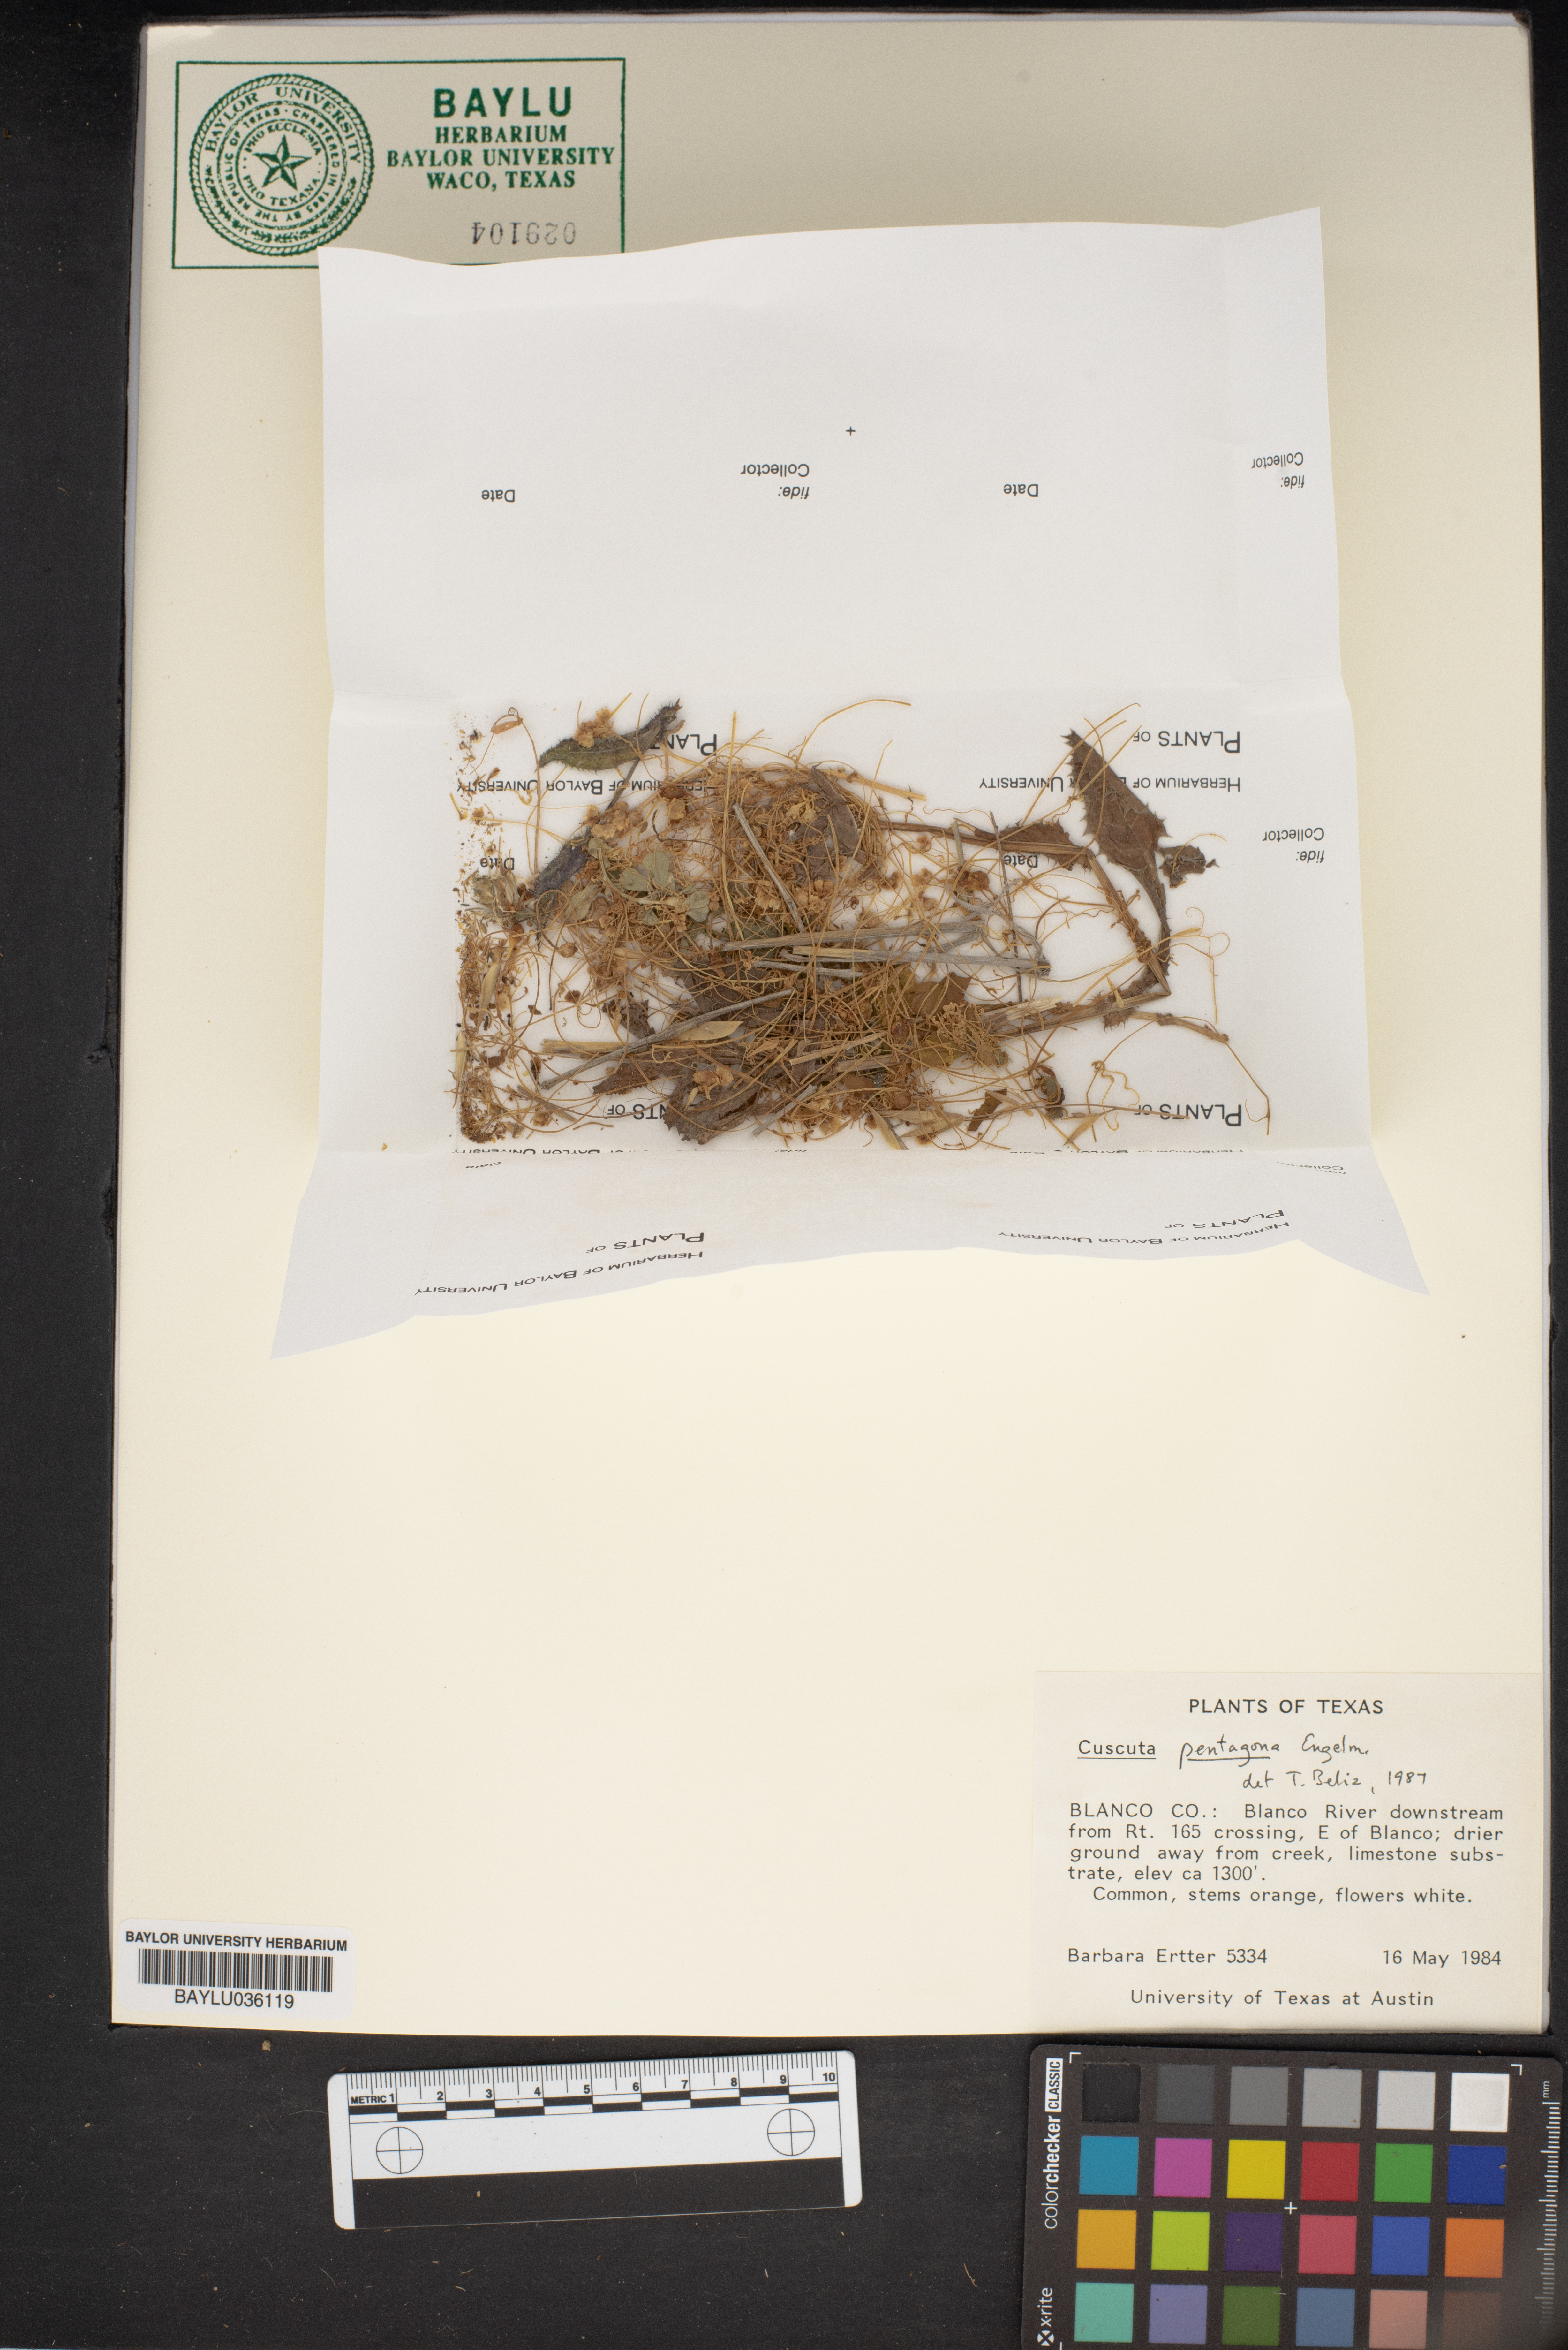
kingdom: Plantae
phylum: Tracheophyta
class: Magnoliopsida
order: Solanales
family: Convolvulaceae
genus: Cuscuta
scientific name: Cuscuta pentagona
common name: Fiveangled dodder
